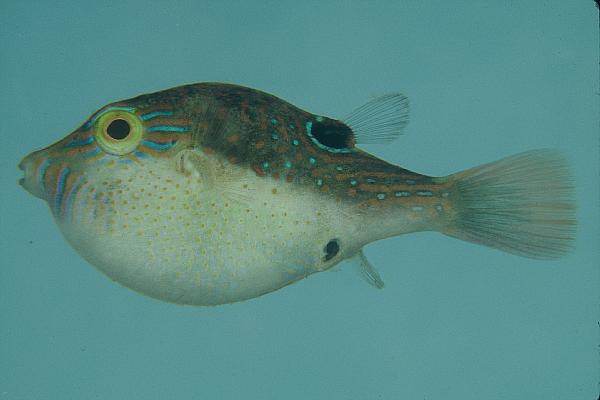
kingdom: Animalia
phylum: Chordata
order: Tetraodontiformes
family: Tetraodontidae
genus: Canthigaster
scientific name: Canthigaster bennetti
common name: Bennett's pufferfish
